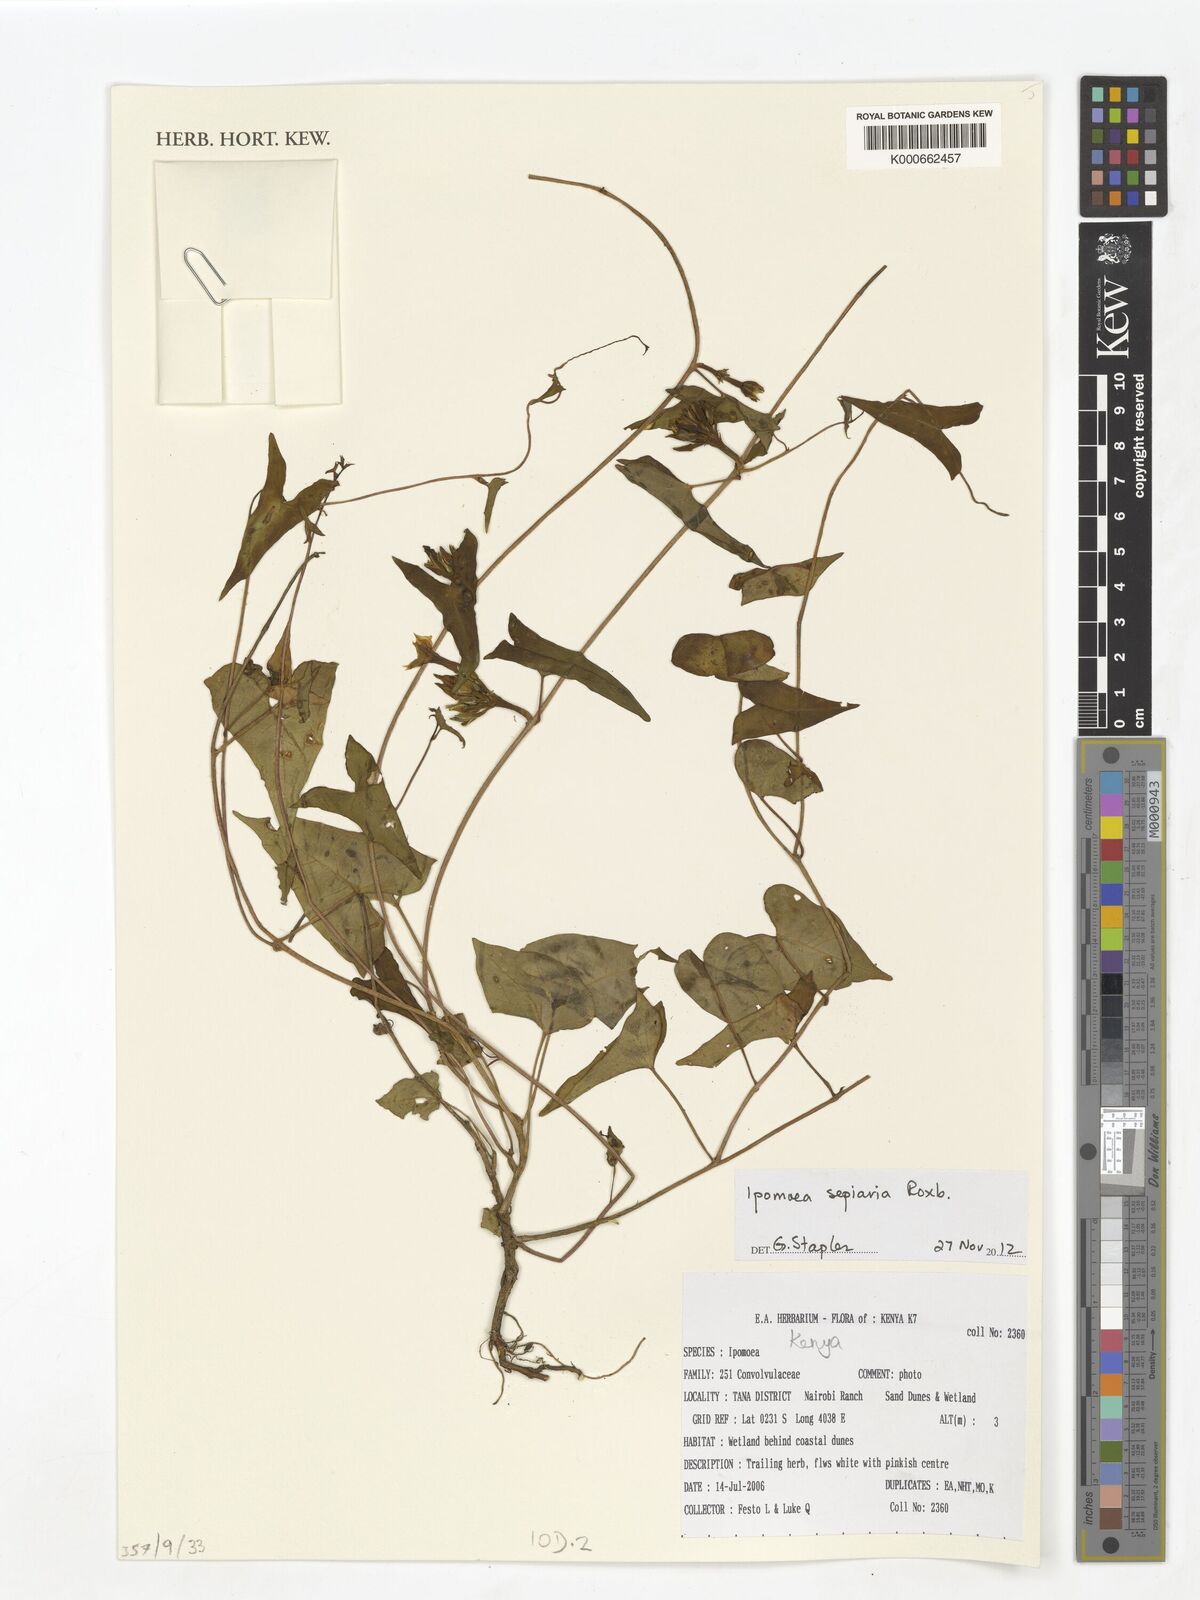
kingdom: Plantae
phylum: Tracheophyta
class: Magnoliopsida
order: Solanales
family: Convolvulaceae
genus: Ipomoea
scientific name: Ipomoea sagittifolia
